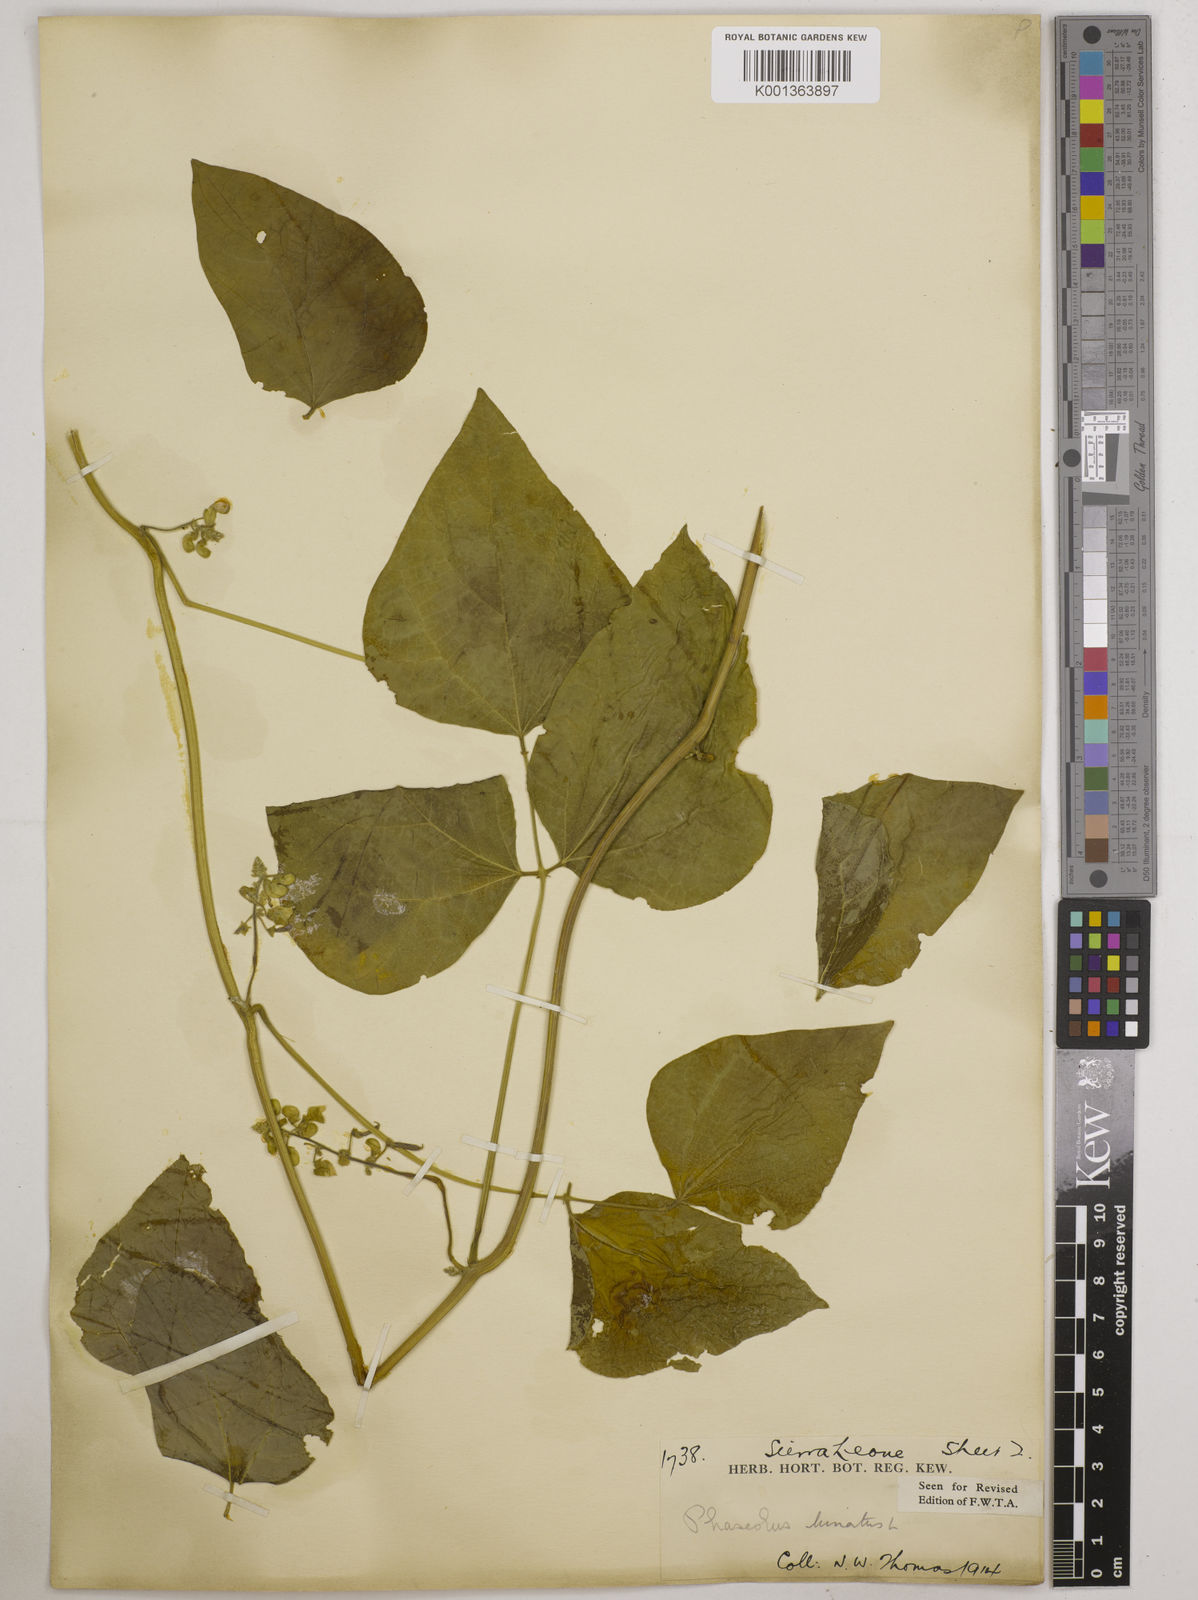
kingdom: Plantae
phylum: Tracheophyta
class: Magnoliopsida
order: Fabales
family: Fabaceae
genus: Phaseolus
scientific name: Phaseolus lunatus
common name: Sieva bean
